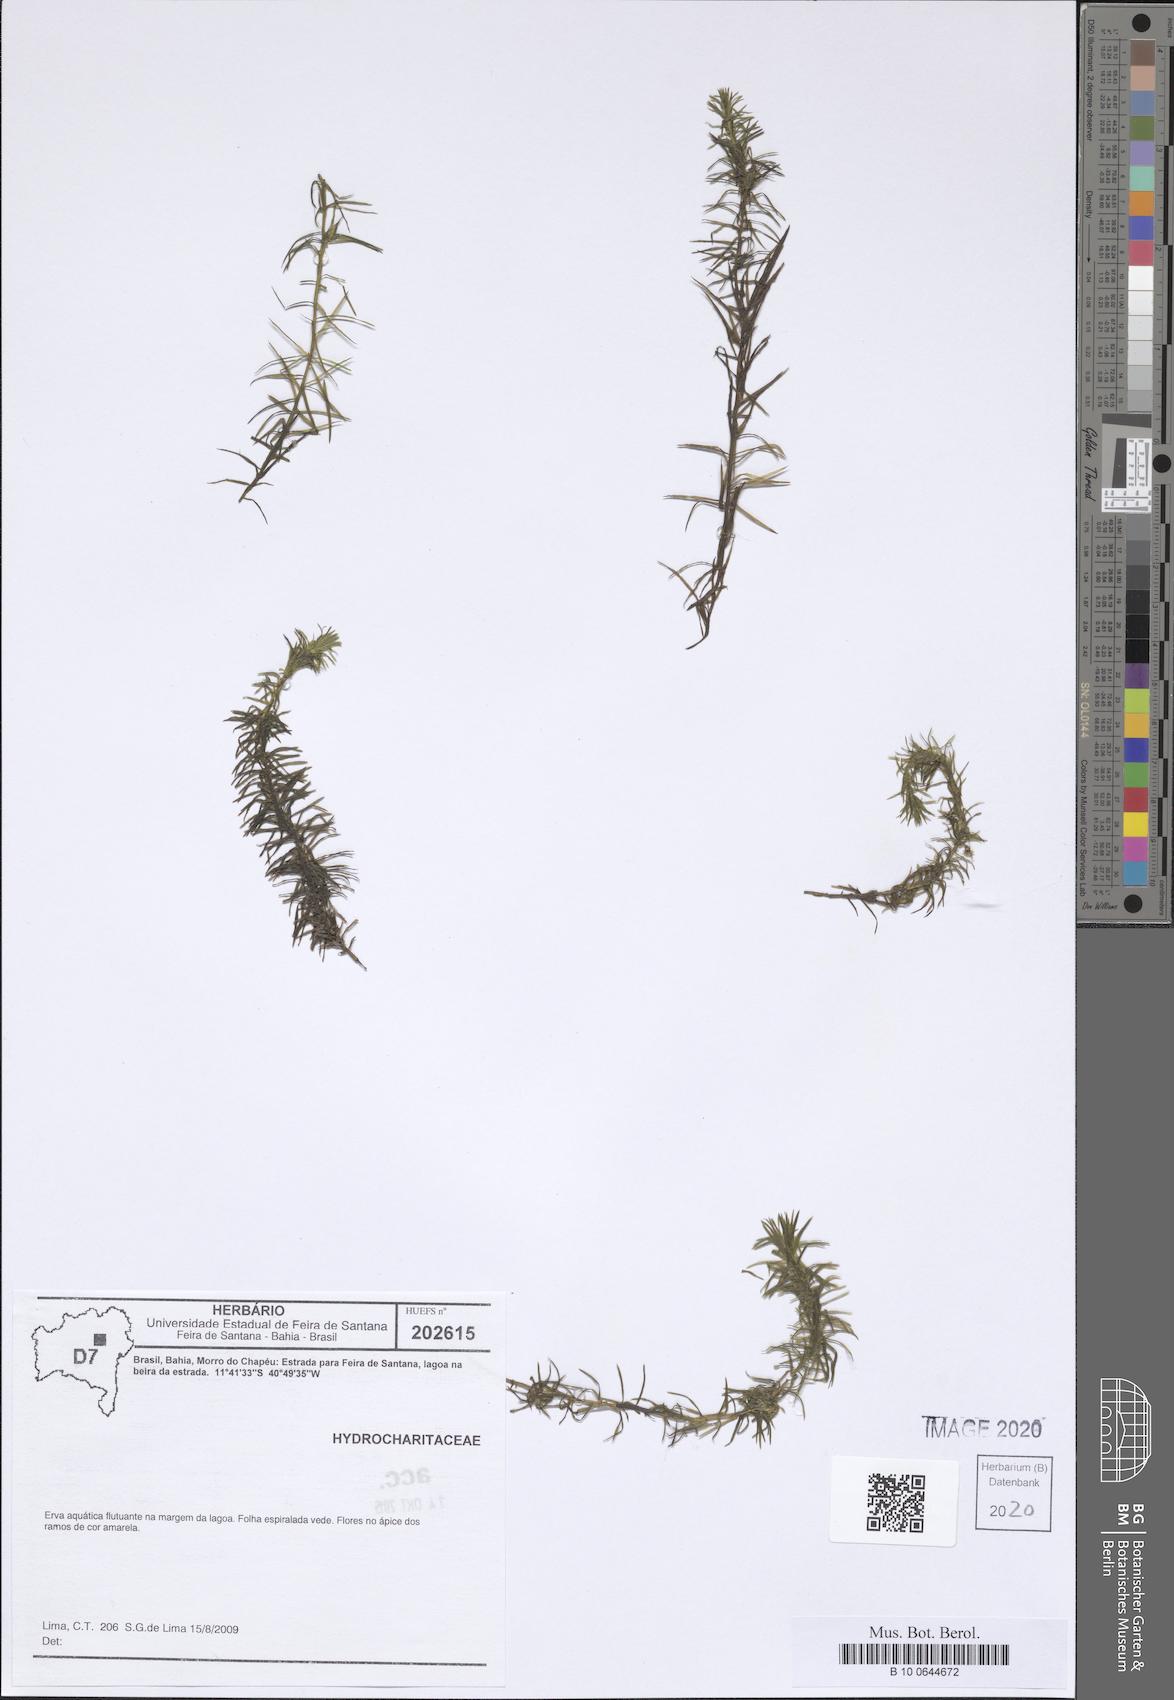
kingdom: Plantae
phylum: Tracheophyta
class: Liliopsida
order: Alismatales
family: Hydrocharitaceae
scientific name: Hydrocharitaceae
